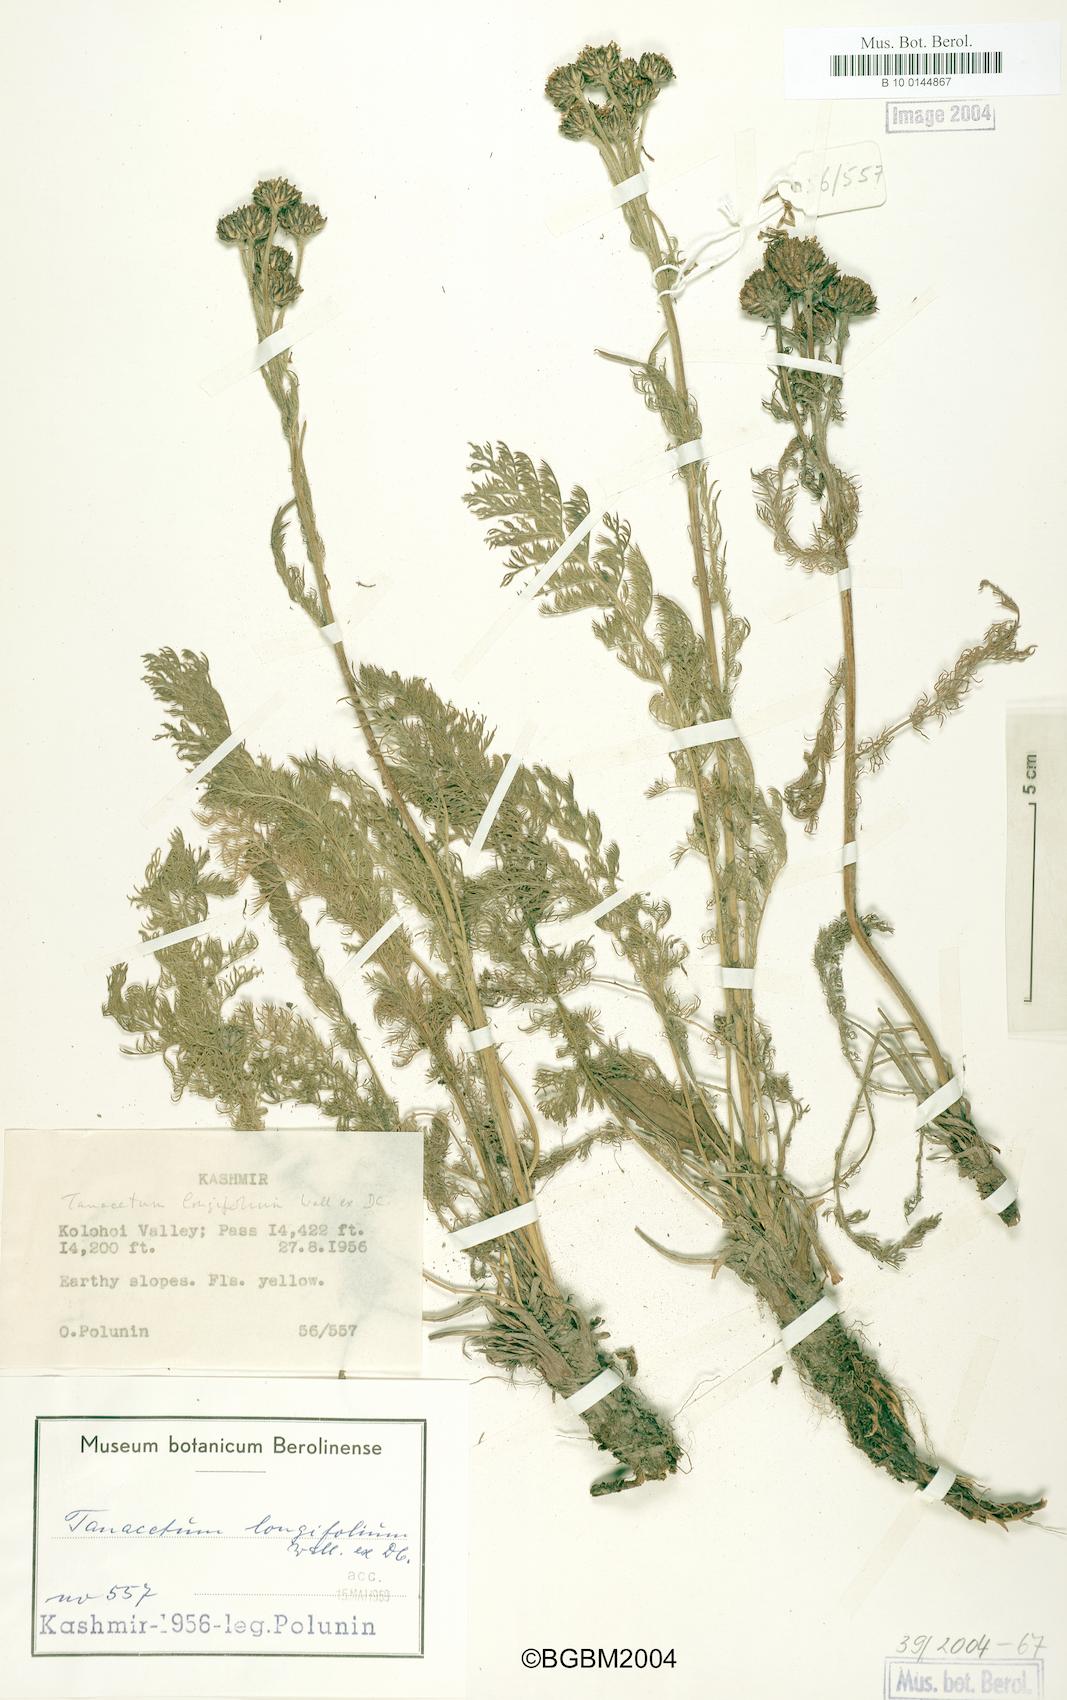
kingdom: Plantae
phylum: Tracheophyta
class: Magnoliopsida
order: Asterales
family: Asteraceae
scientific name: Asteraceae
